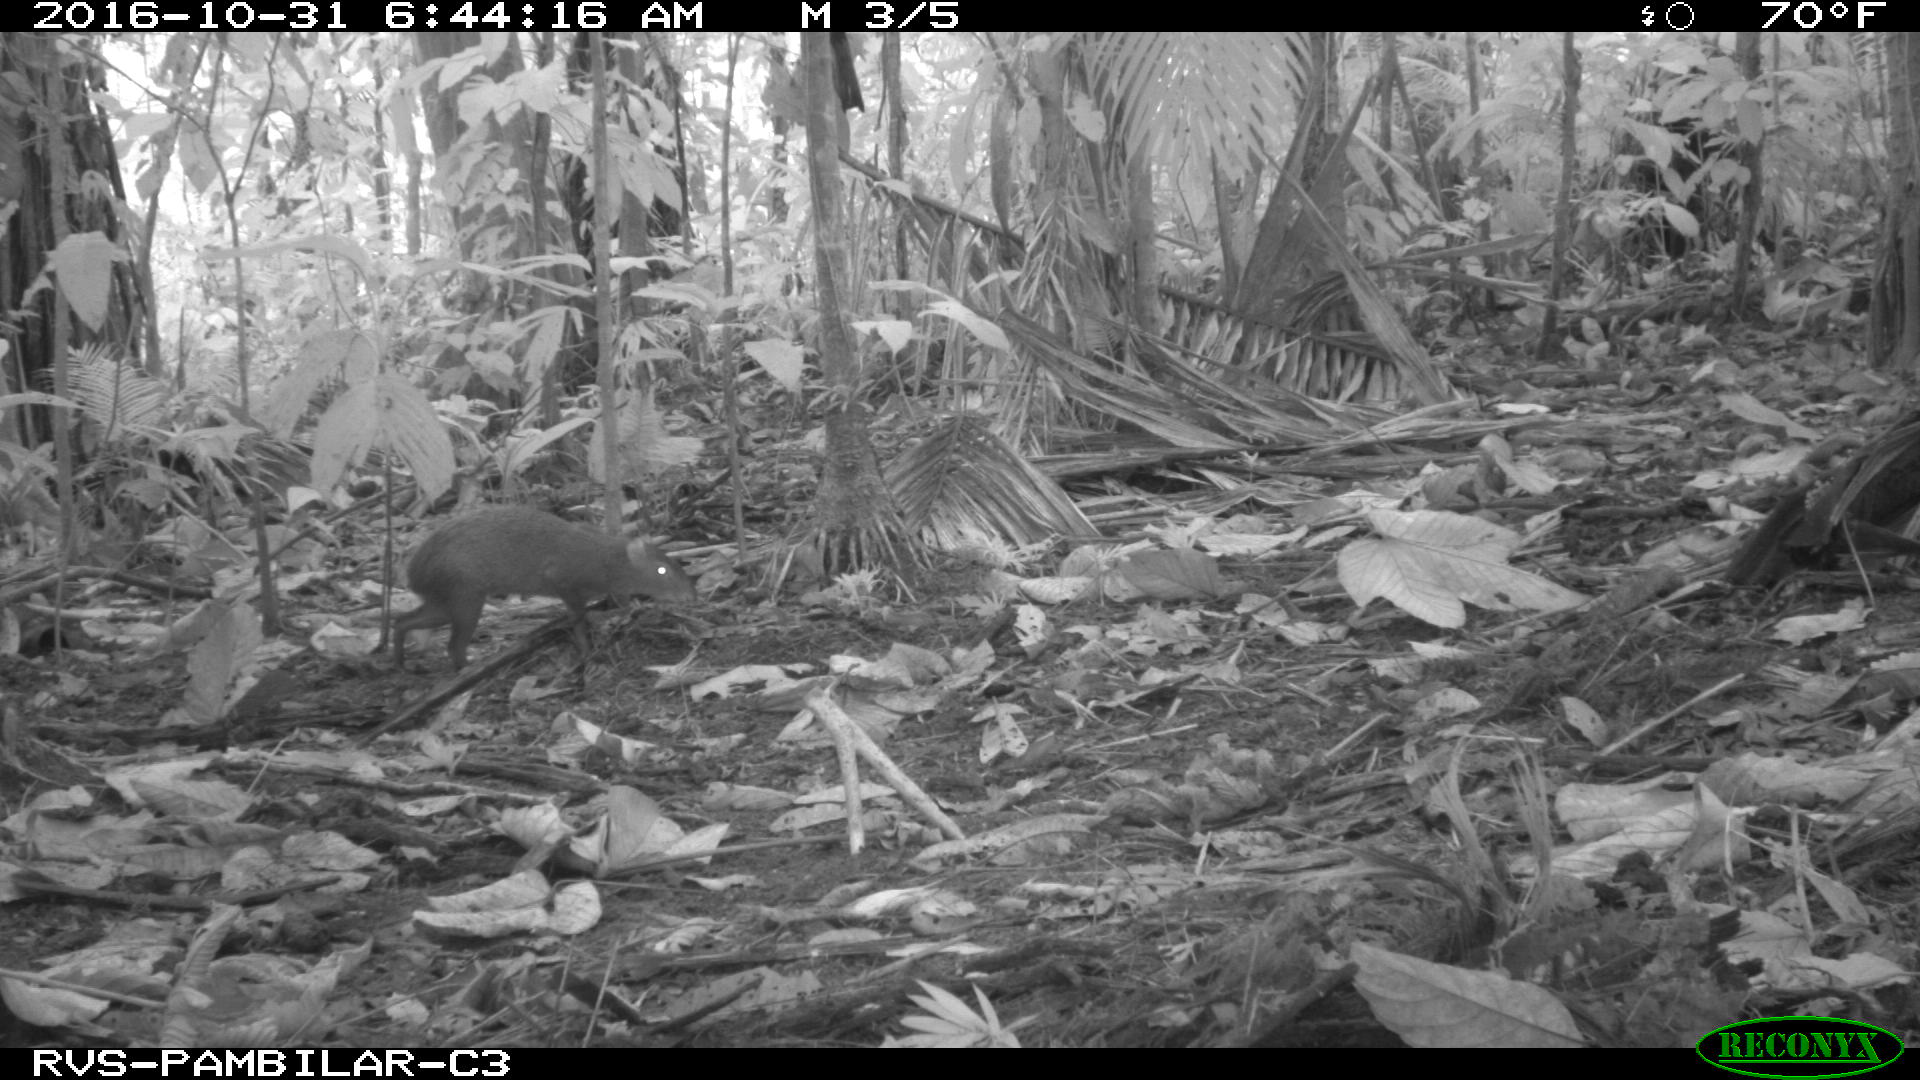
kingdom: Animalia
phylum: Chordata
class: Mammalia
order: Rodentia
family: Dasyproctidae
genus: Dasyprocta
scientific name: Dasyprocta punctata
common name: Central american agouti
